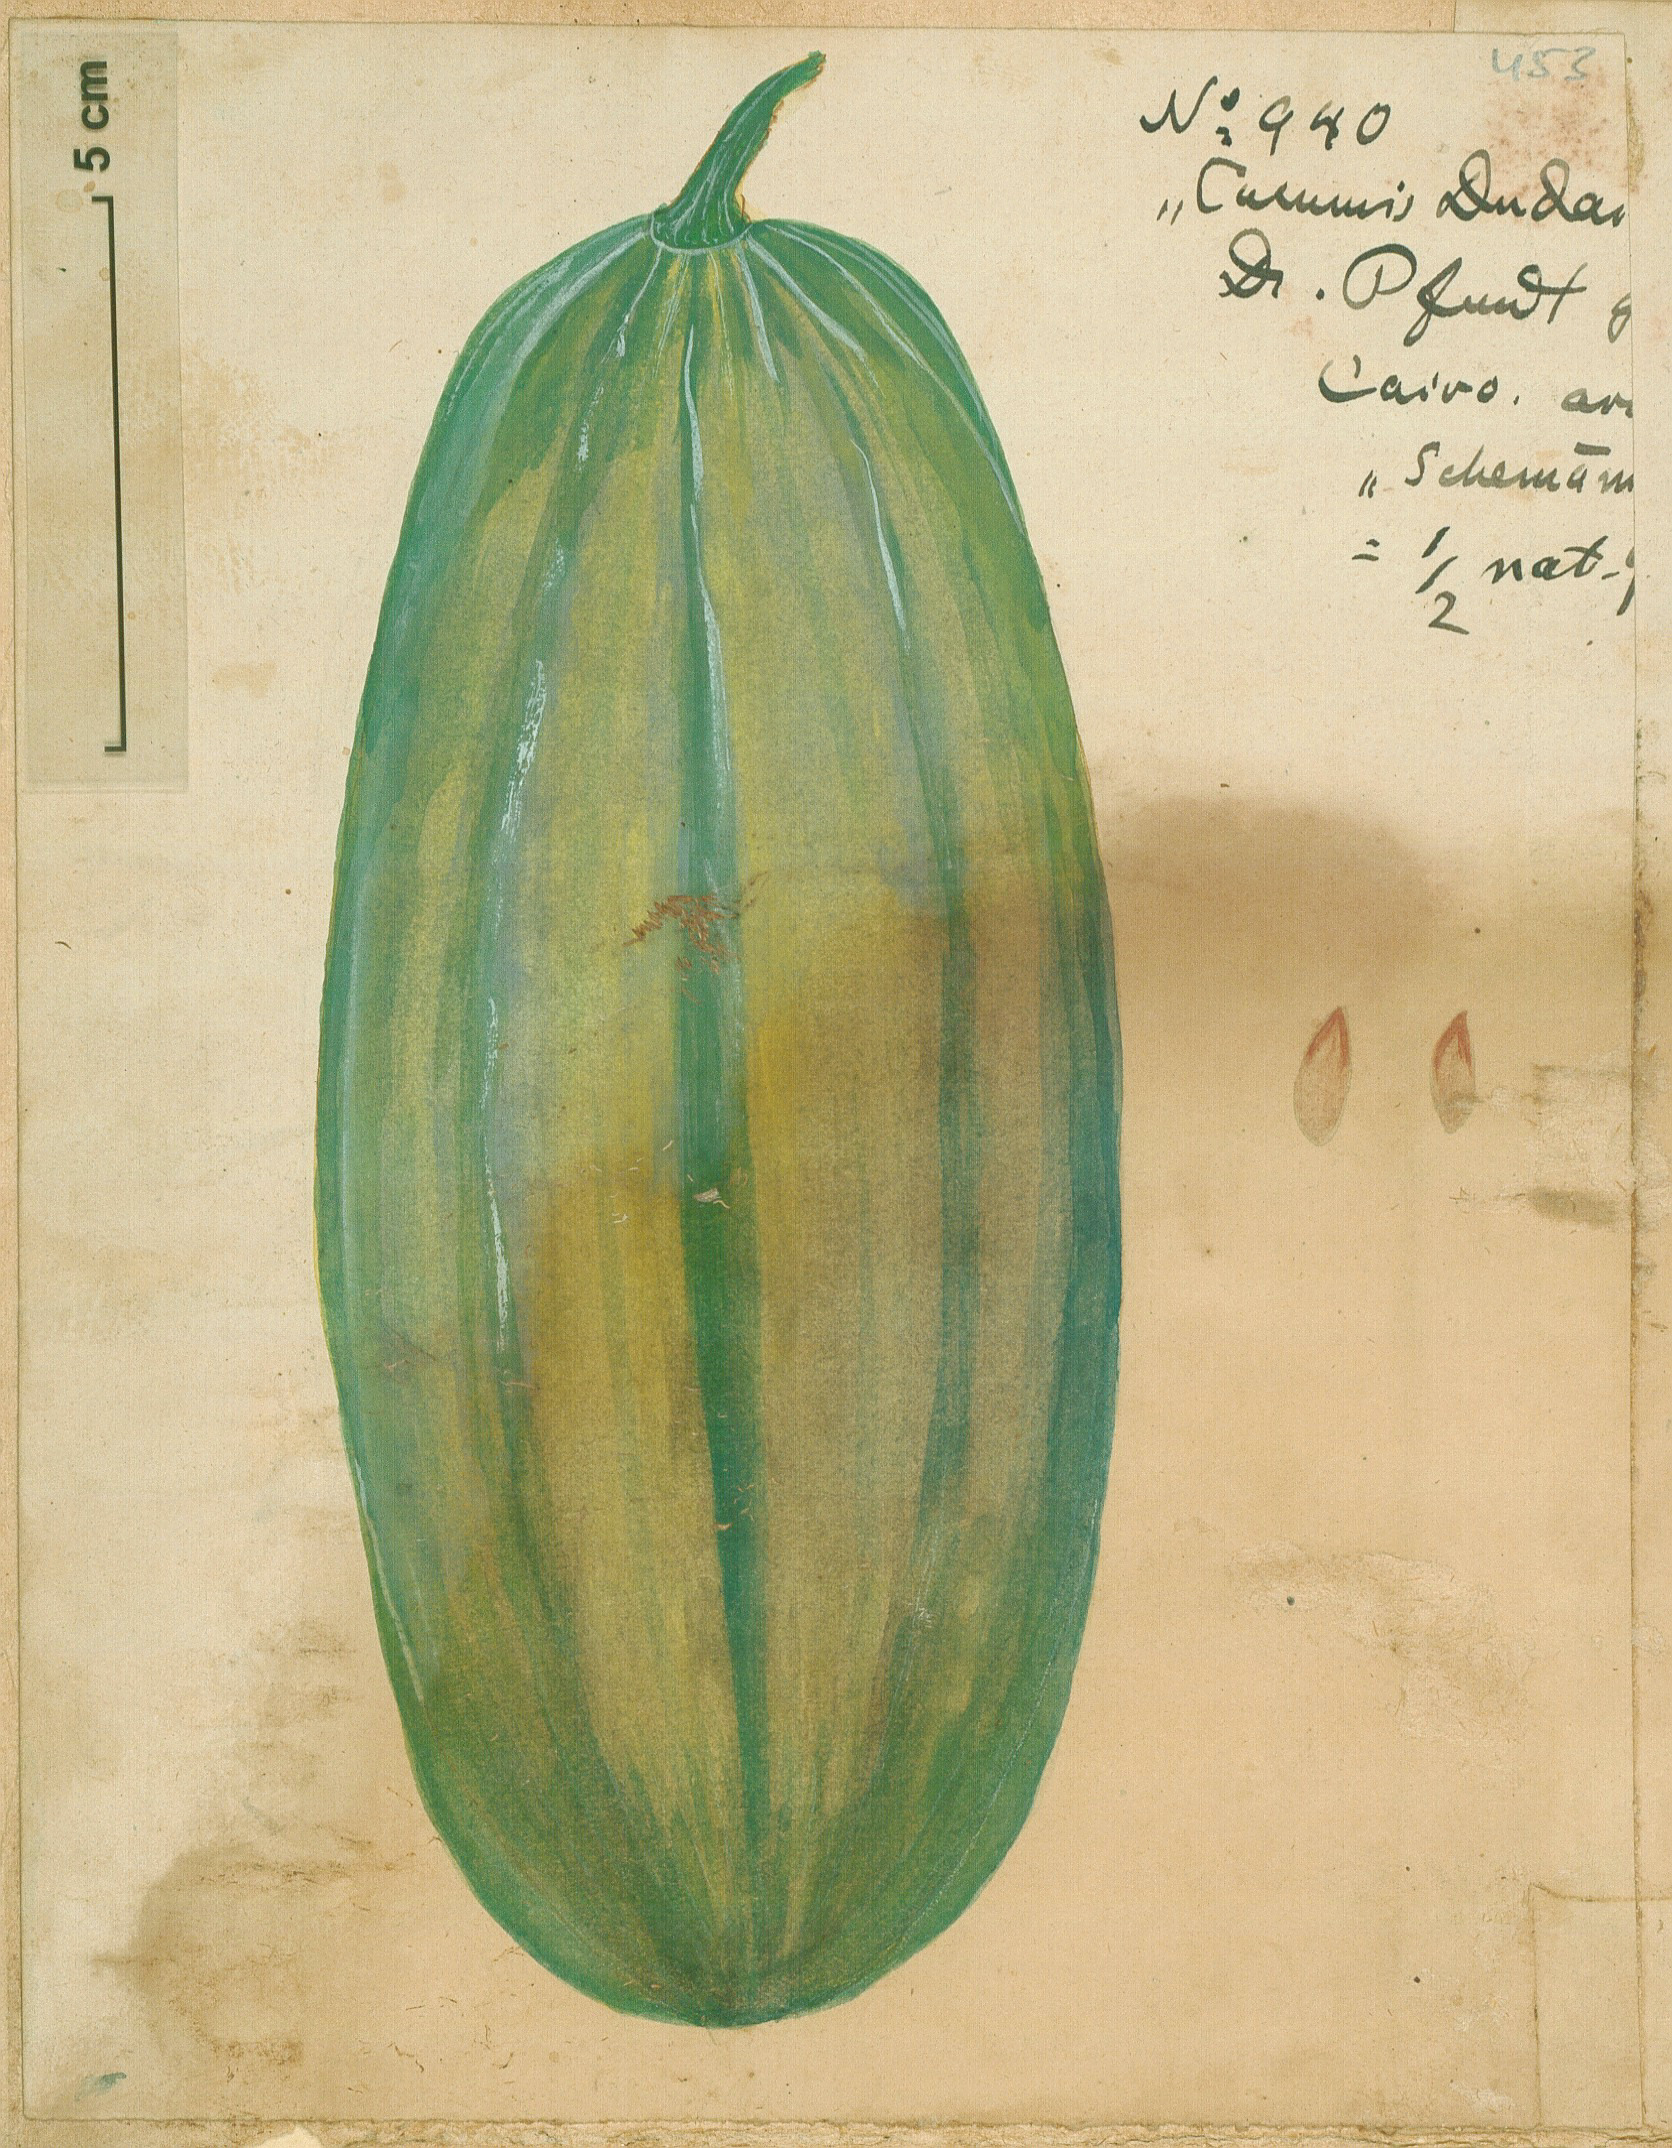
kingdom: Plantae
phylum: Tracheophyta
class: Magnoliopsida
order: Cucurbitales
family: Cucurbitaceae
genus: Cucumis
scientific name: Cucumis melo
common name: Melon
